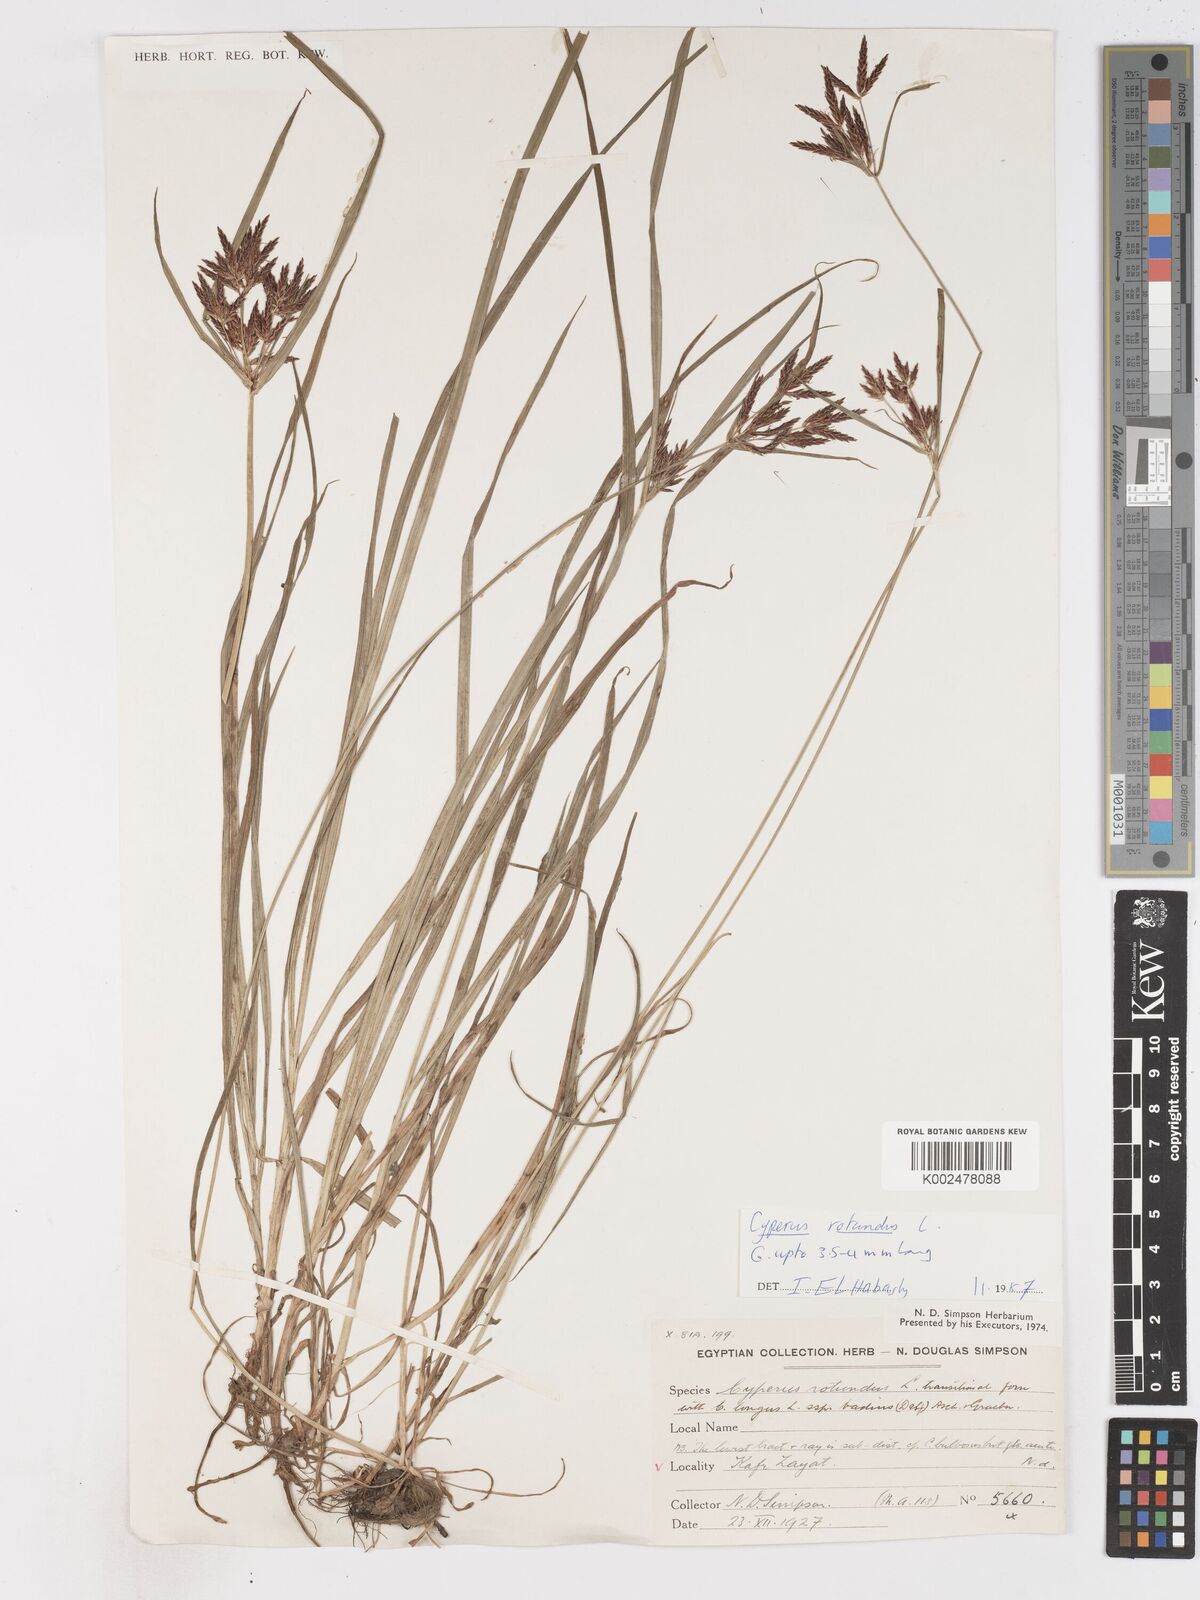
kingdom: Plantae
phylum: Tracheophyta
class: Liliopsida
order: Poales
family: Cyperaceae
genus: Cyperus
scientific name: Cyperus rotundus
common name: Nutgrass
